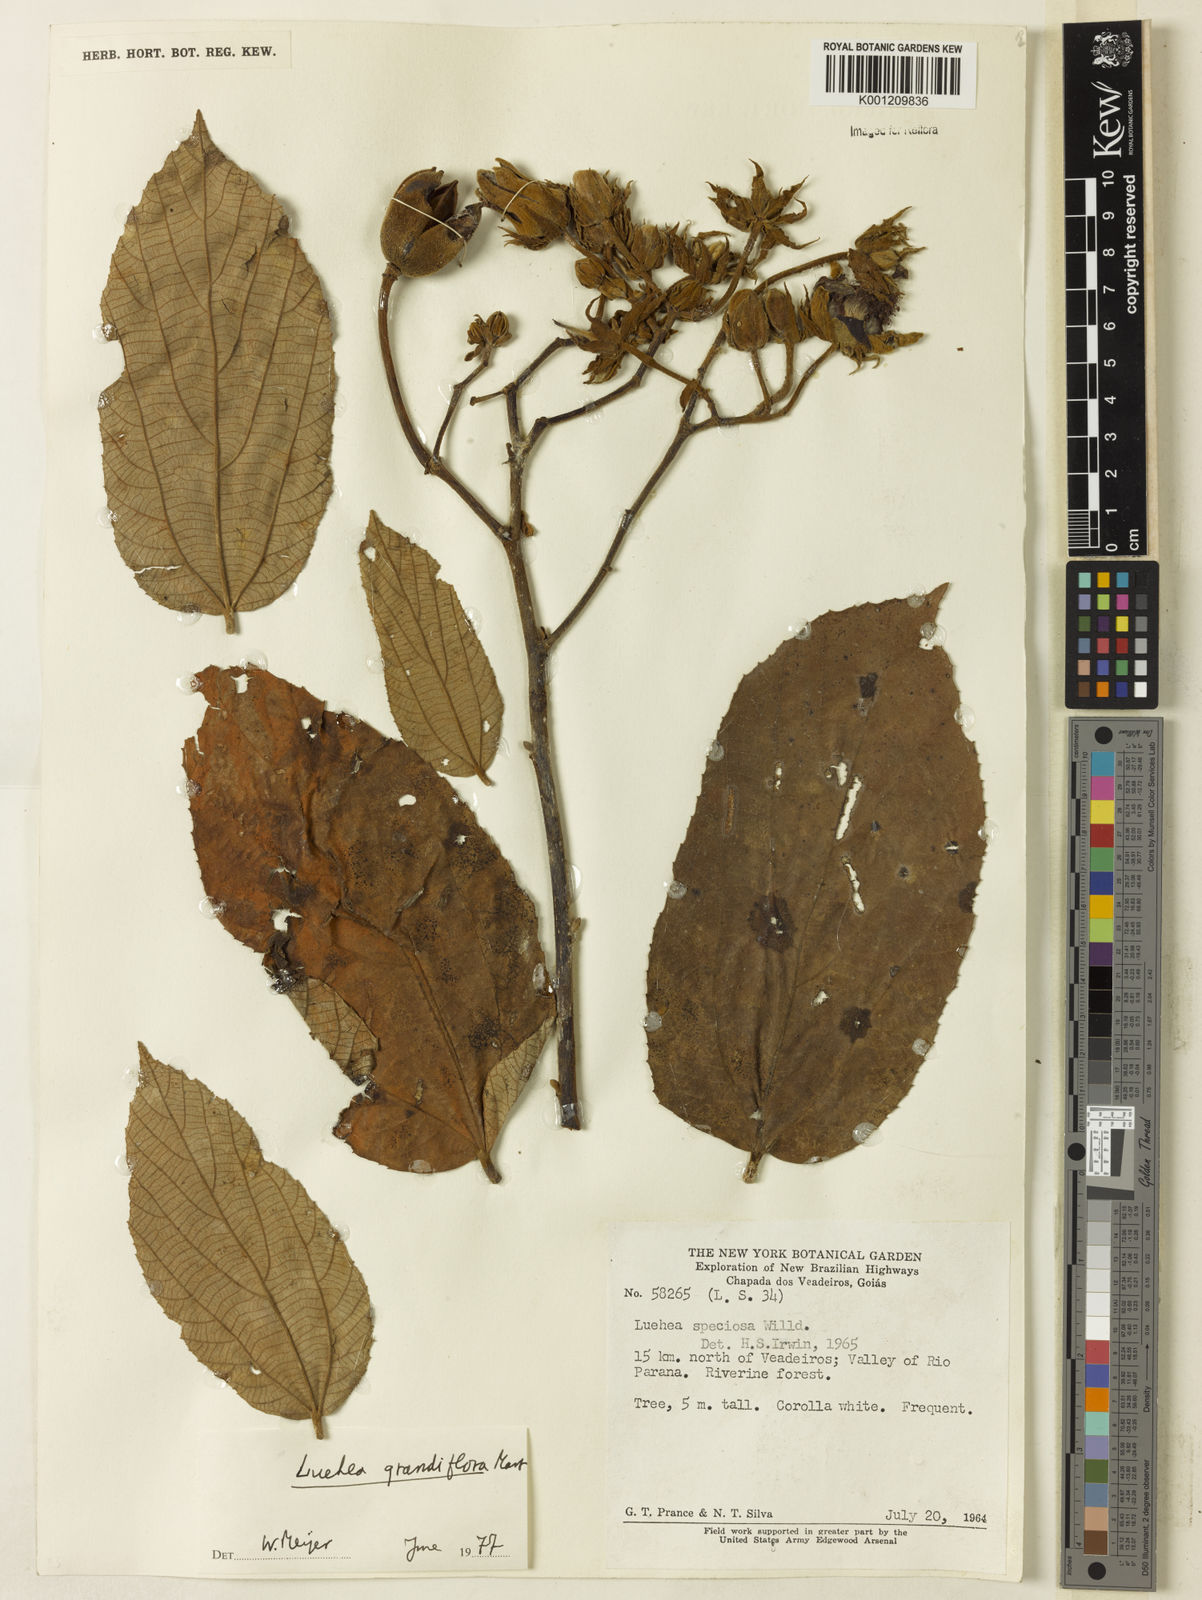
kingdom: Plantae
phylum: Tracheophyta
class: Magnoliopsida
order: Malvales
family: Malvaceae
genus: Luehea
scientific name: Luehea grandiflora
